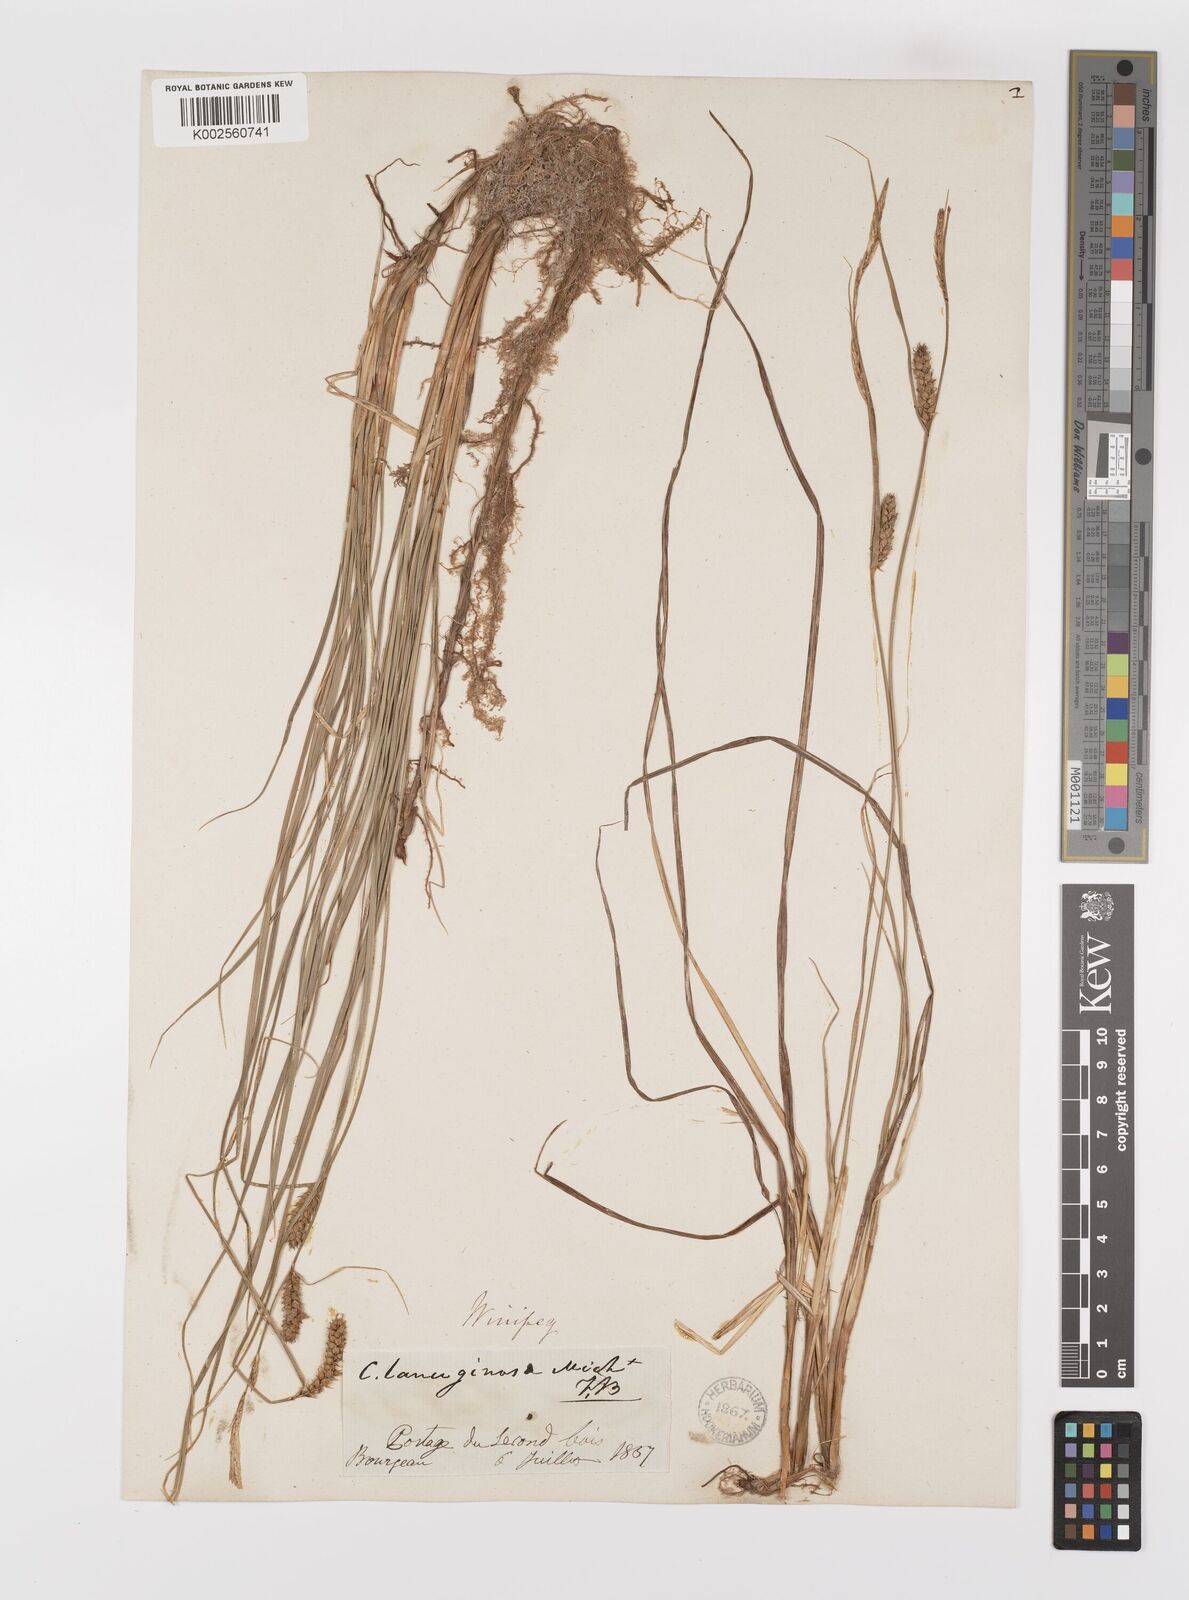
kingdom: Plantae
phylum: Tracheophyta
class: Liliopsida
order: Poales
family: Cyperaceae
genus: Carex
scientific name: Carex lasiocarpa
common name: Slender sedge
